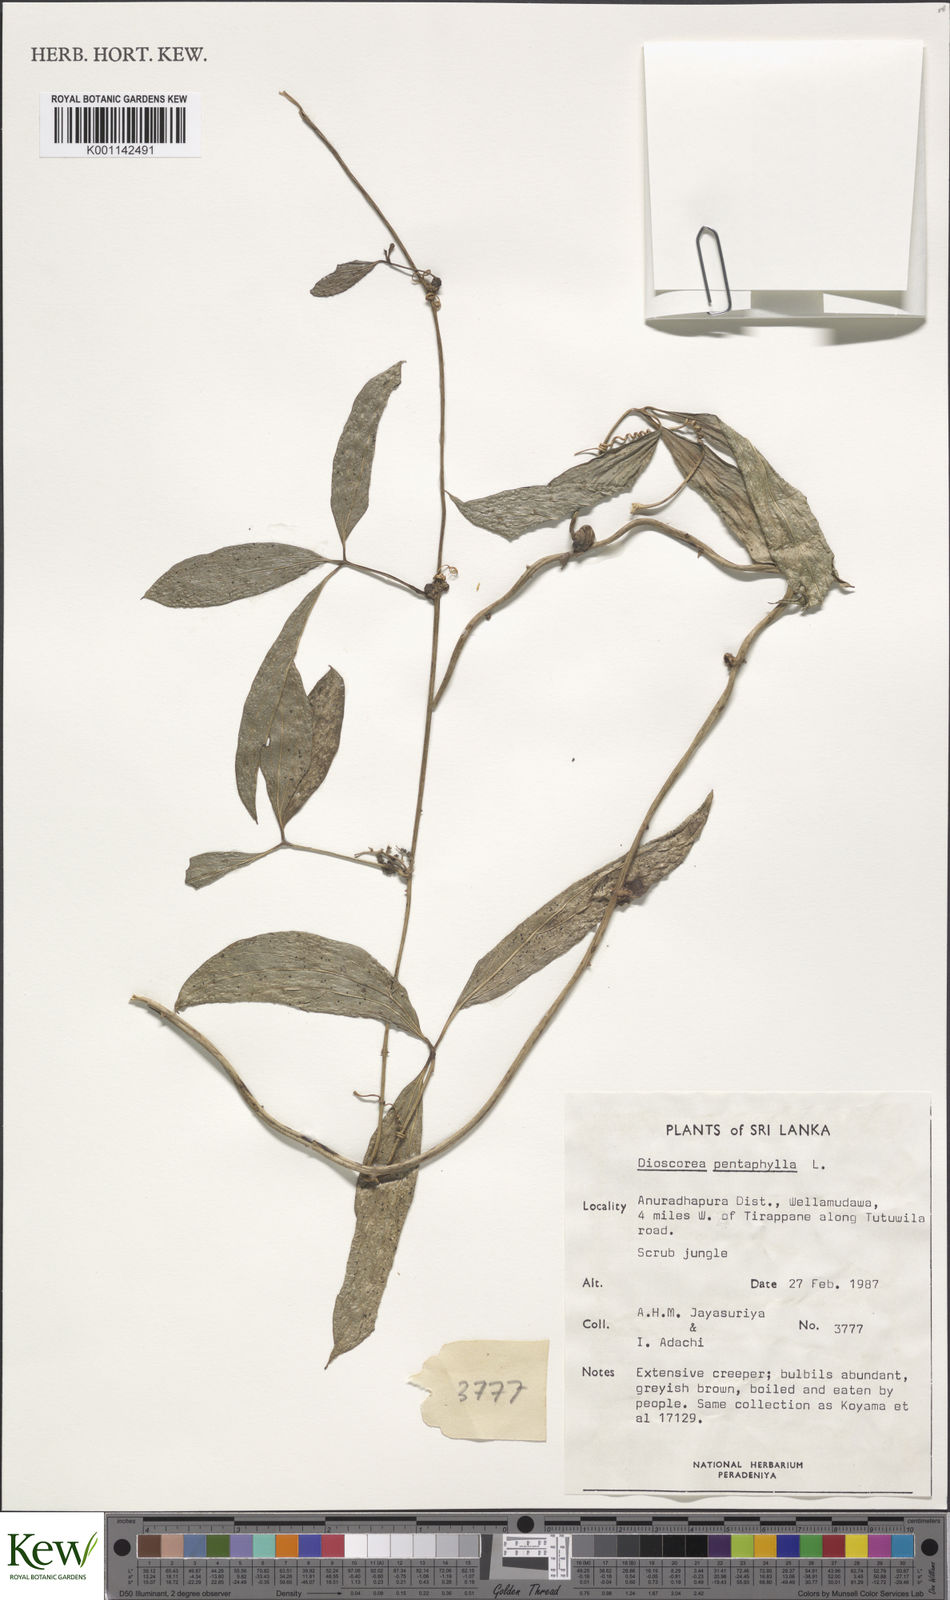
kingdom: Plantae
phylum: Tracheophyta
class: Liliopsida
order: Dioscoreales
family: Dioscoreaceae
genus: Dioscorea
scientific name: Dioscorea pentaphylla
